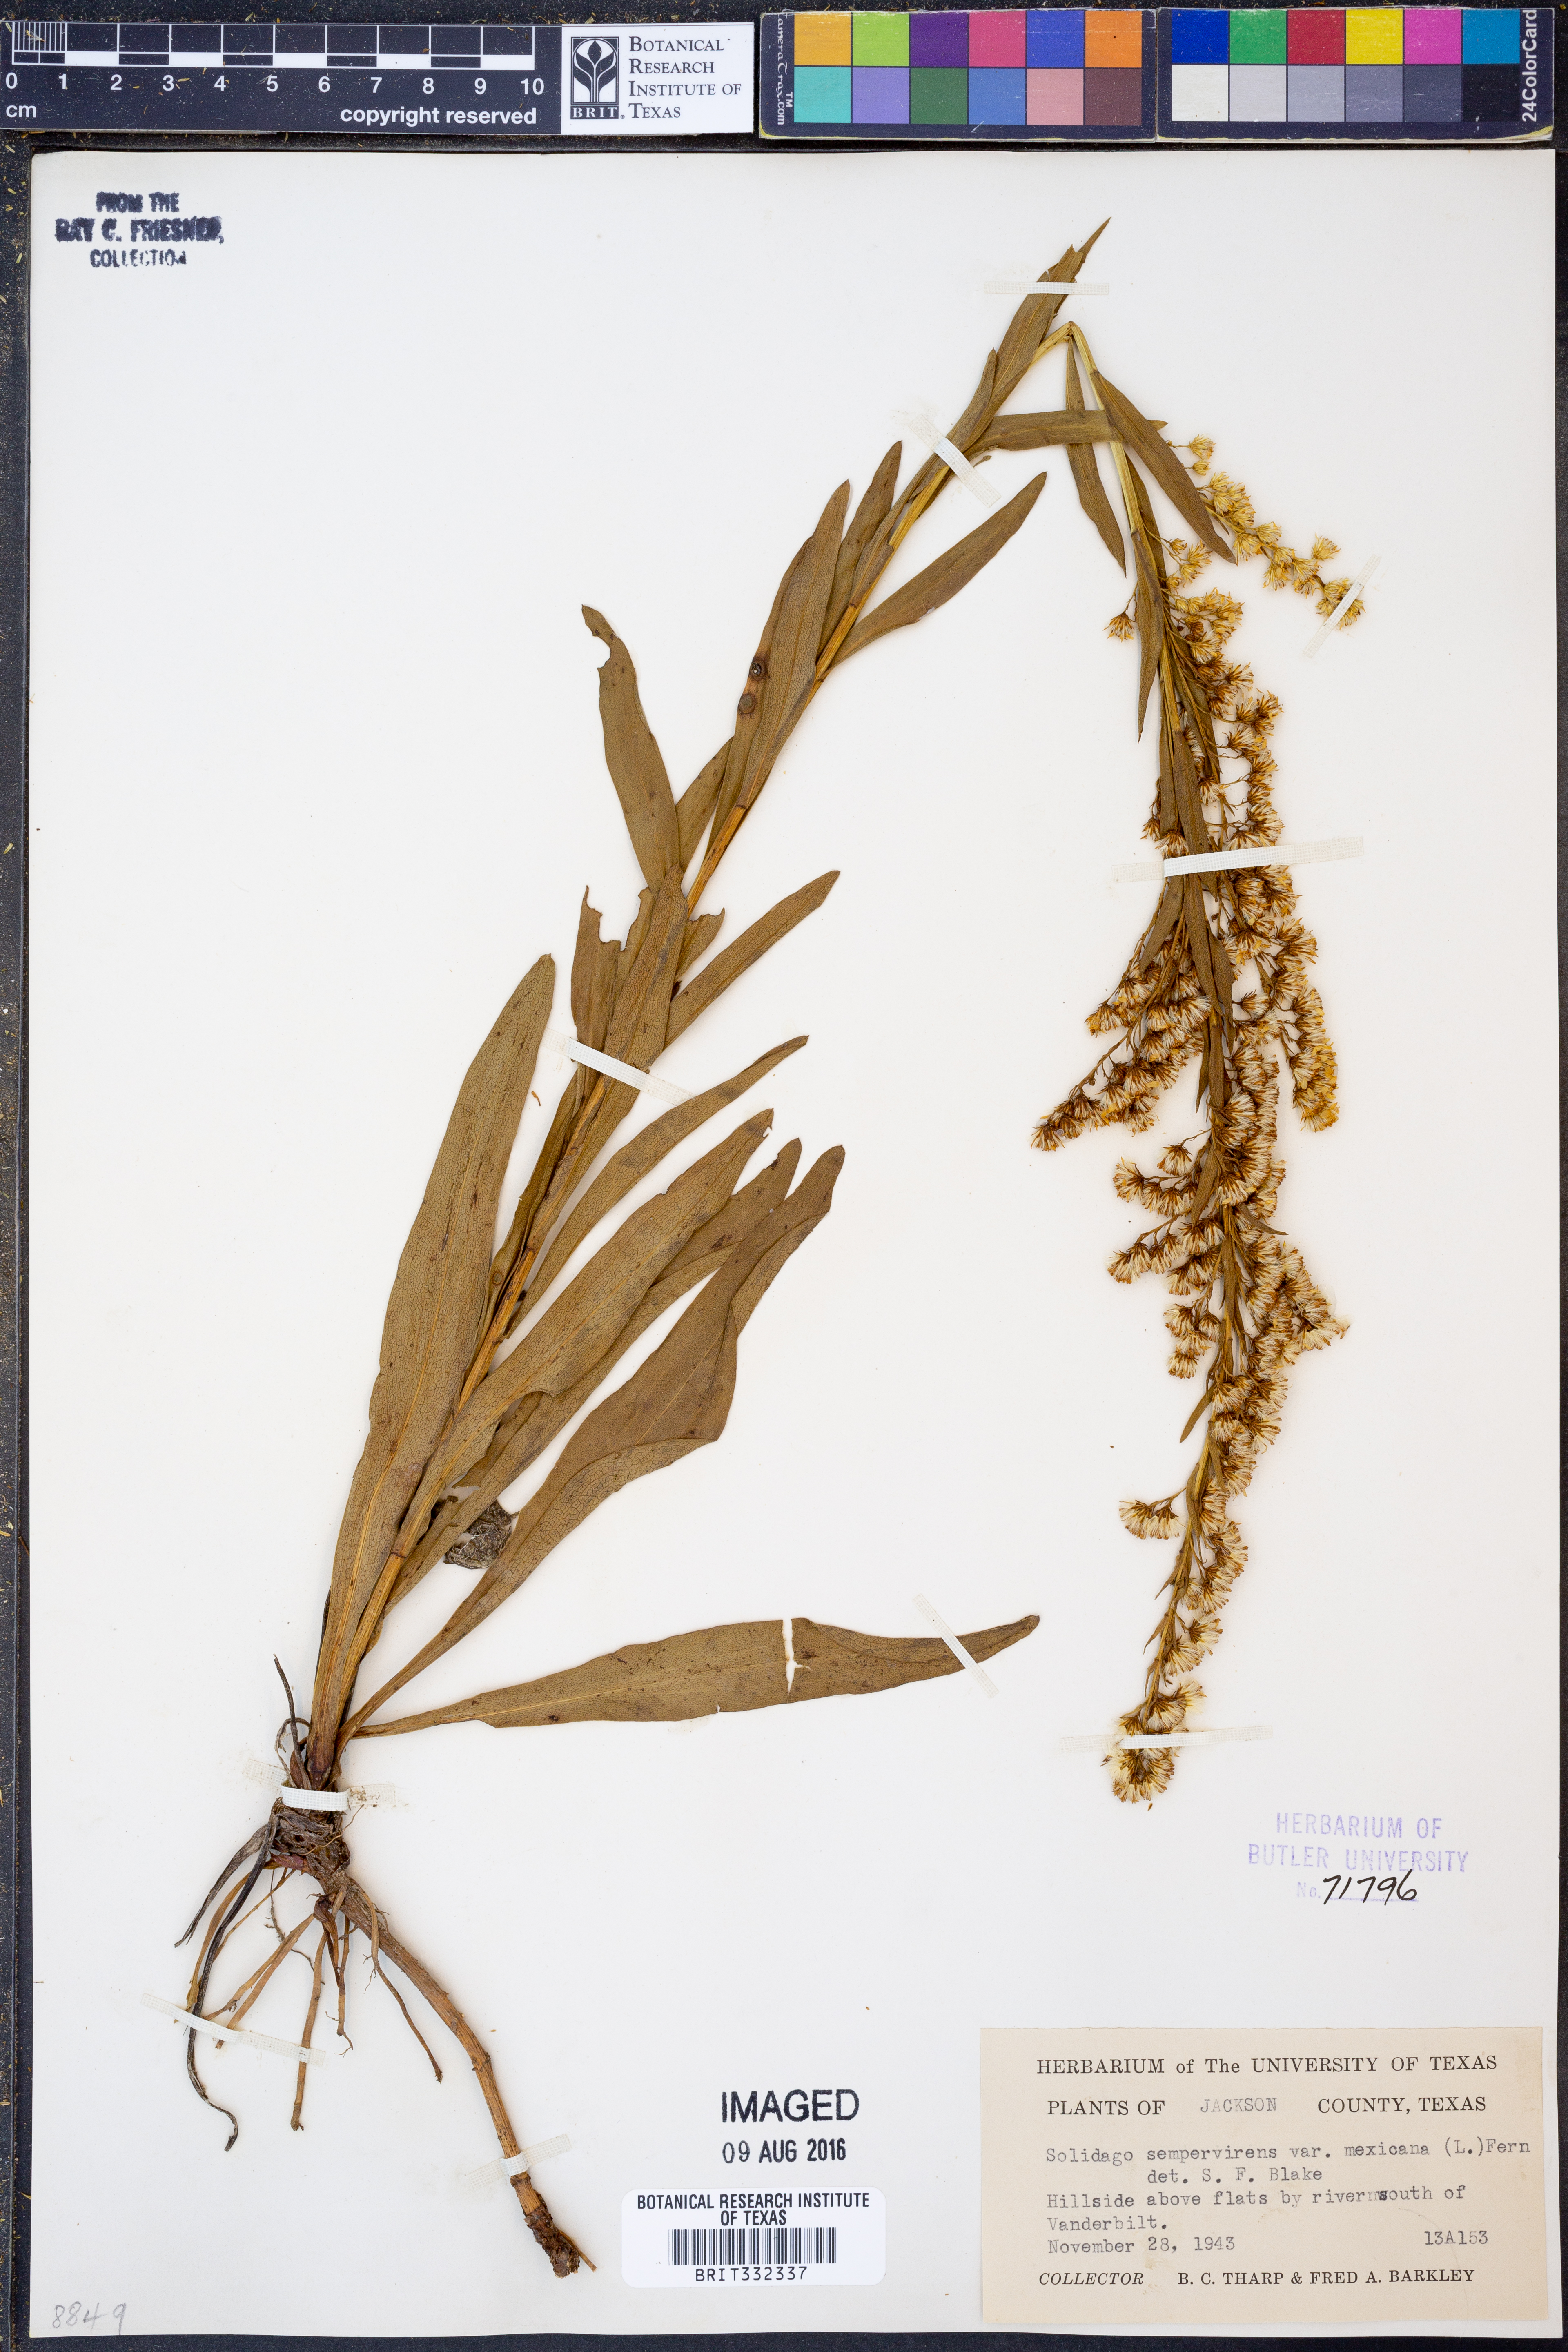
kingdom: Plantae
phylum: Tracheophyta
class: Magnoliopsida
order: Asterales
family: Asteraceae
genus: Solidago
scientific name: Solidago mexicana
